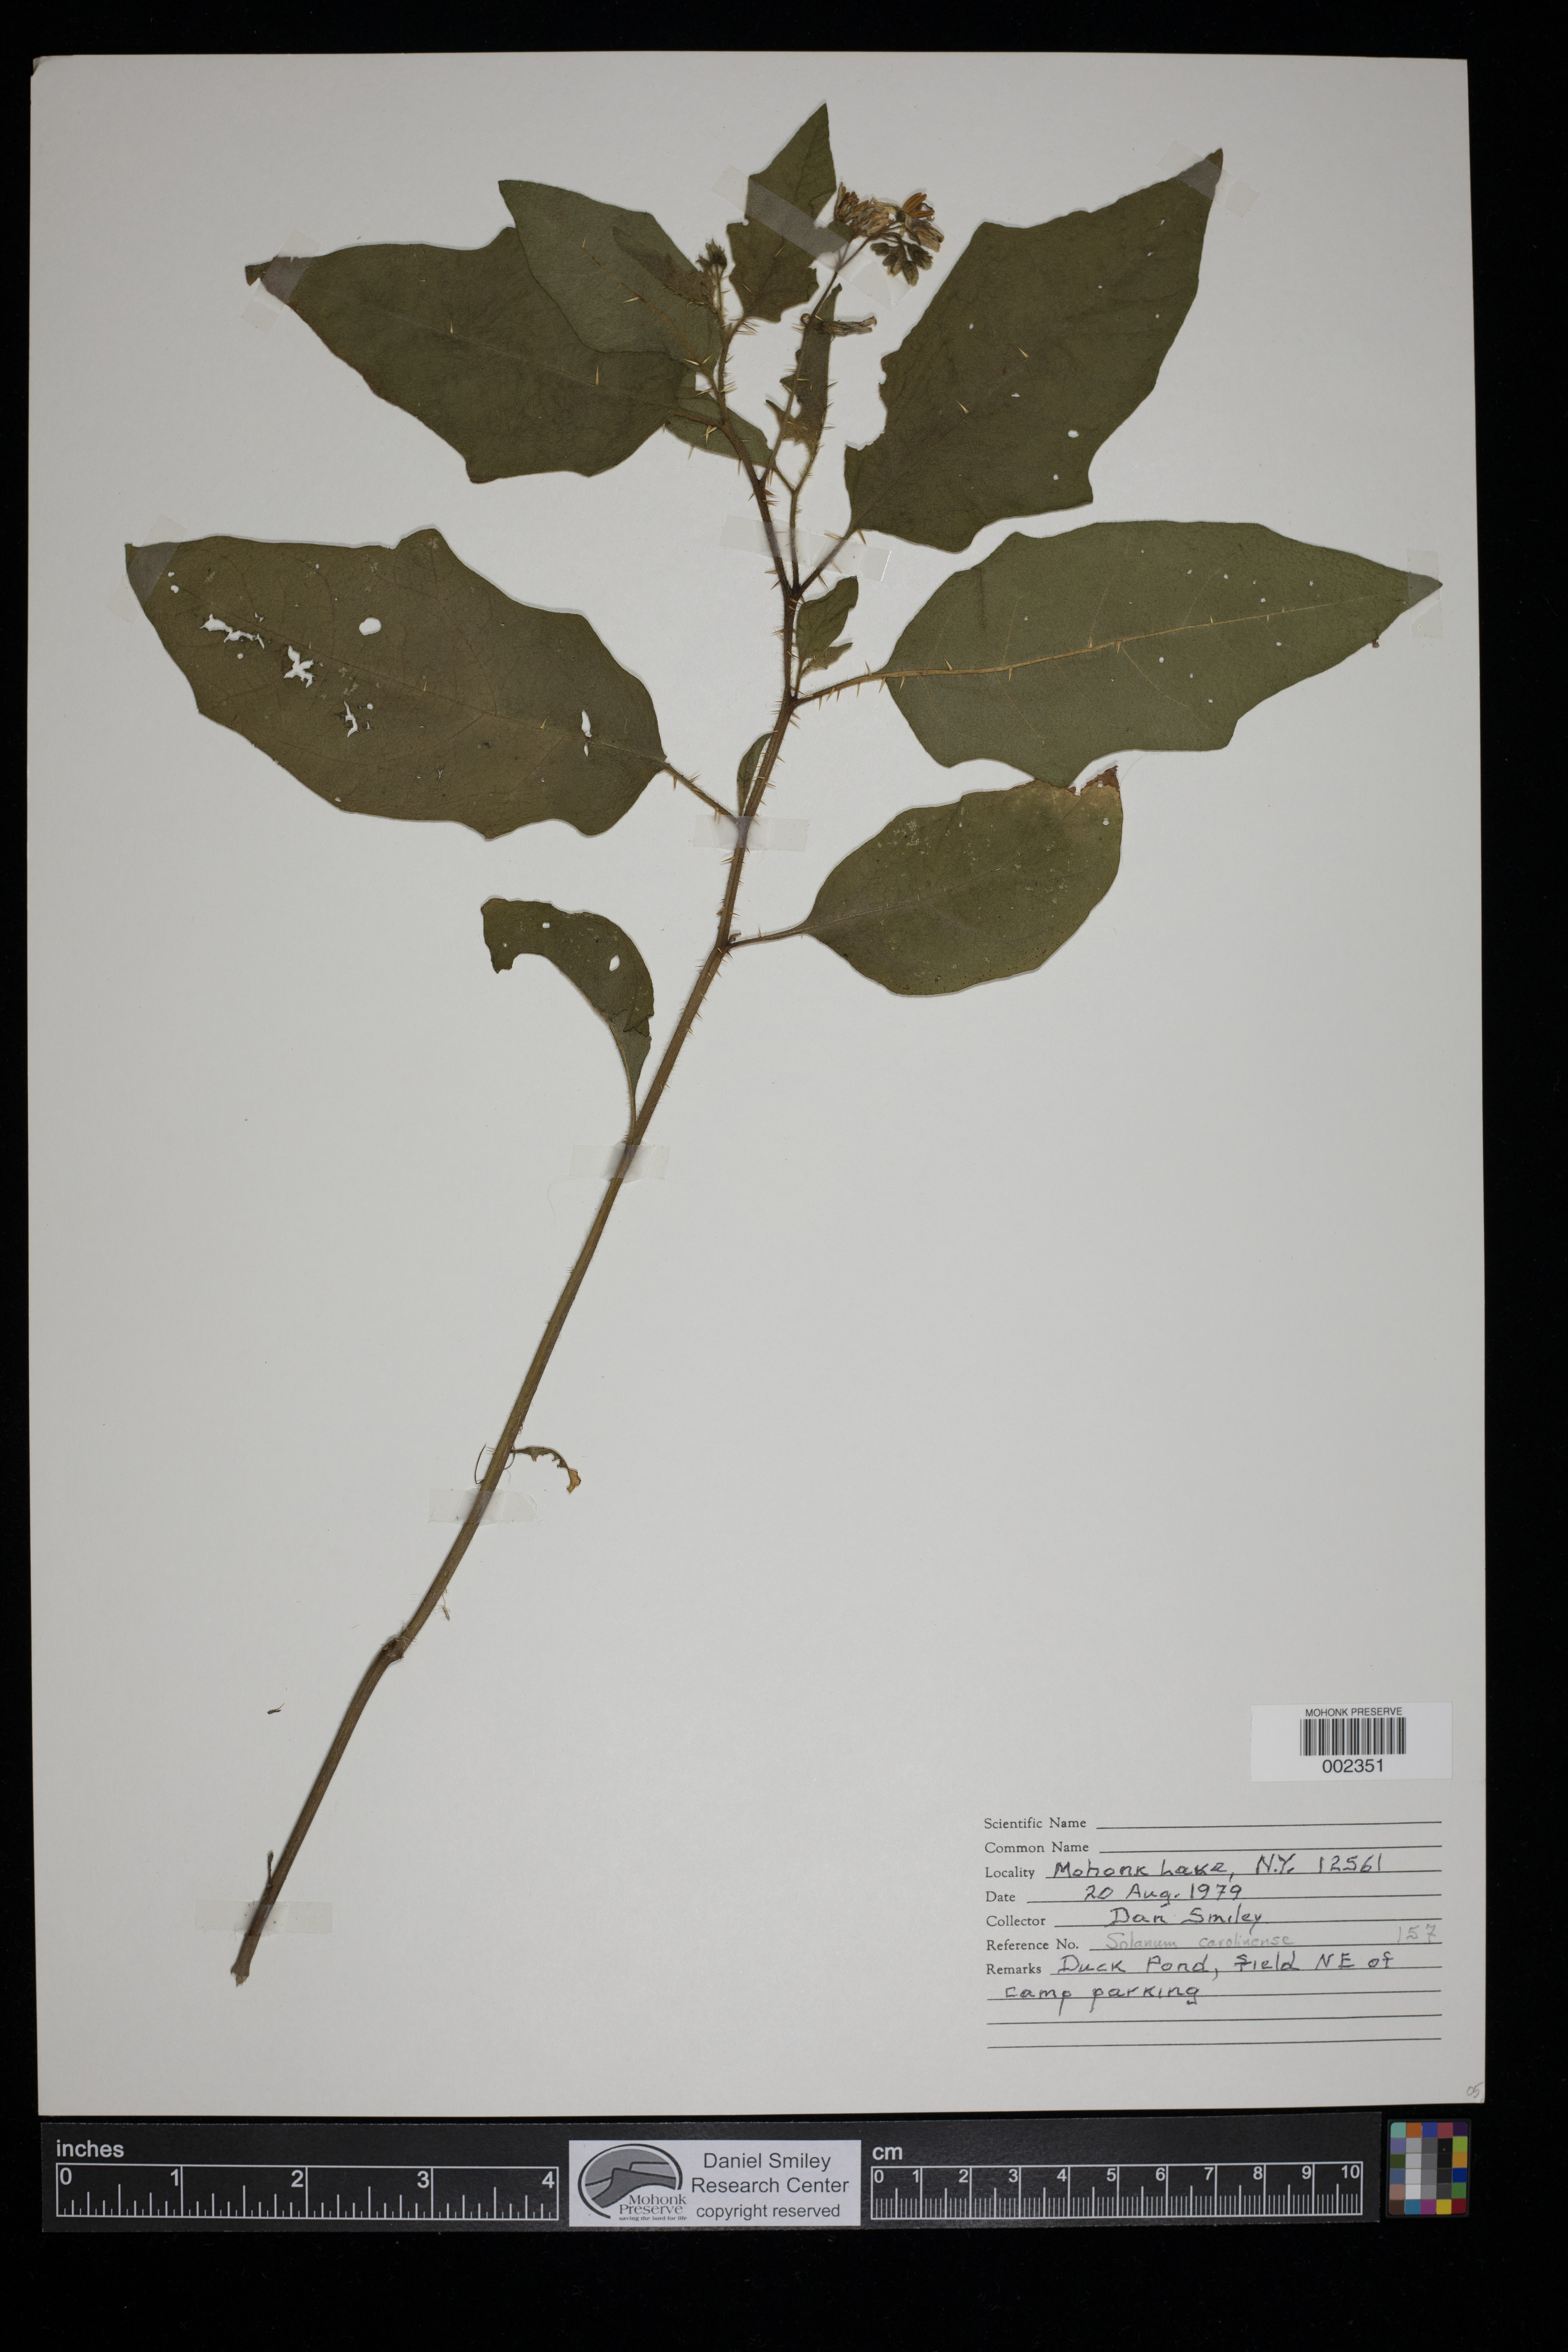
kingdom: Plantae
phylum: Tracheophyta
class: Magnoliopsida
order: Solanales
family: Solanaceae
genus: Solanum
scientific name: Solanum carolinense
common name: Horse-nettle
